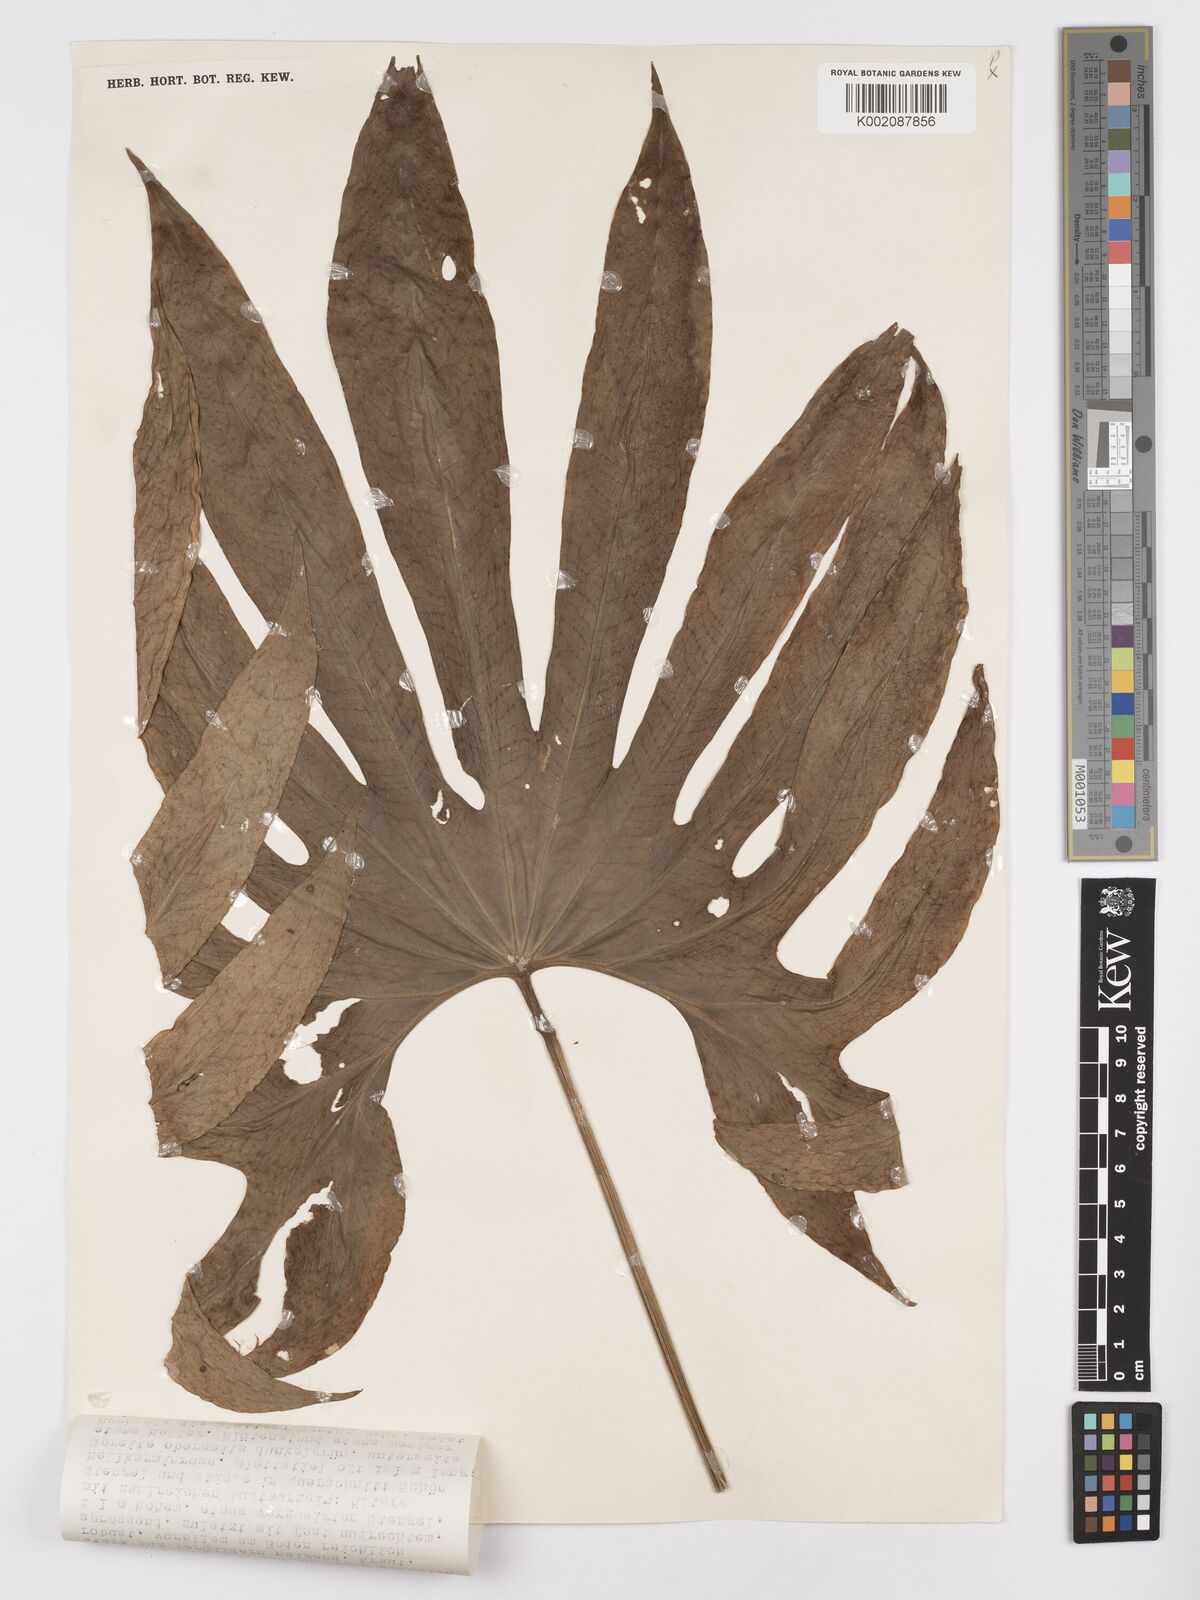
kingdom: Plantae
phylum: Tracheophyta
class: Liliopsida
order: Alismatales
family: Araceae
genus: Anthurium
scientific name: Anthurium pedatoradiatum
